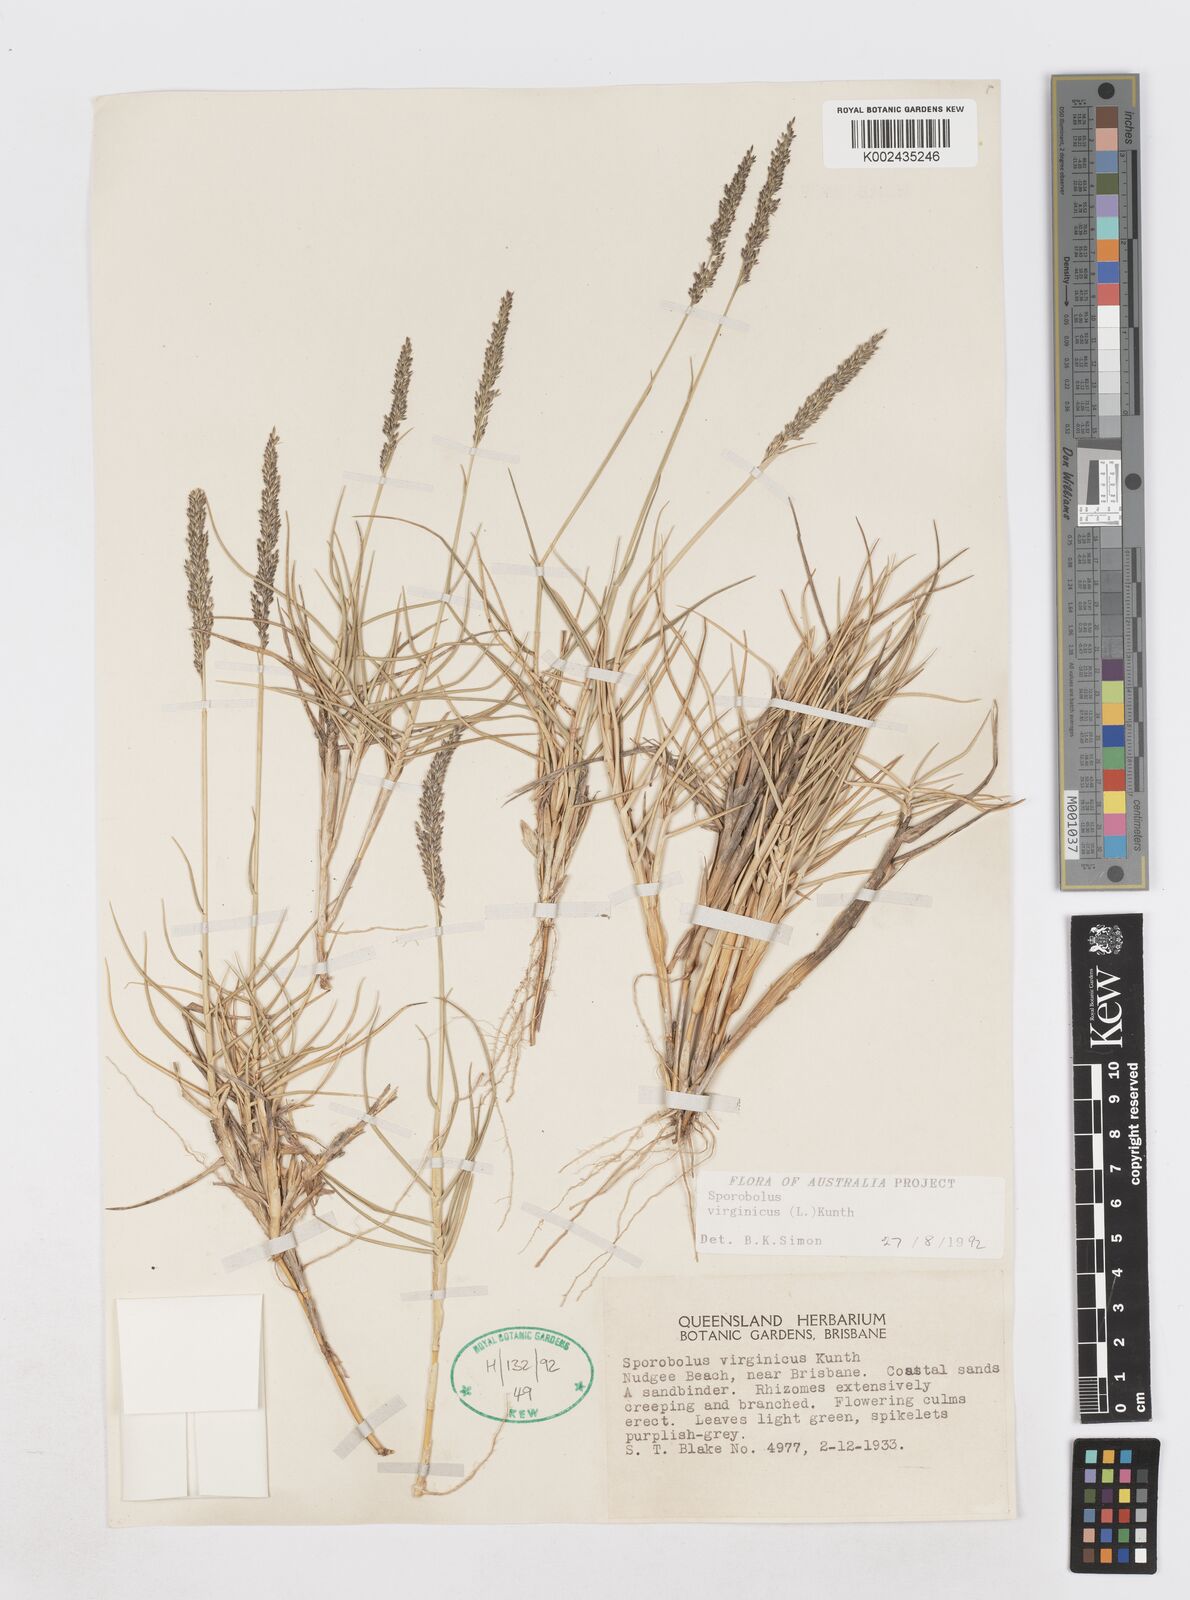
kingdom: Plantae
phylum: Tracheophyta
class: Liliopsida
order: Poales
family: Poaceae
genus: Sporobolus
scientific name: Sporobolus virginicus
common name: Beach dropseed
